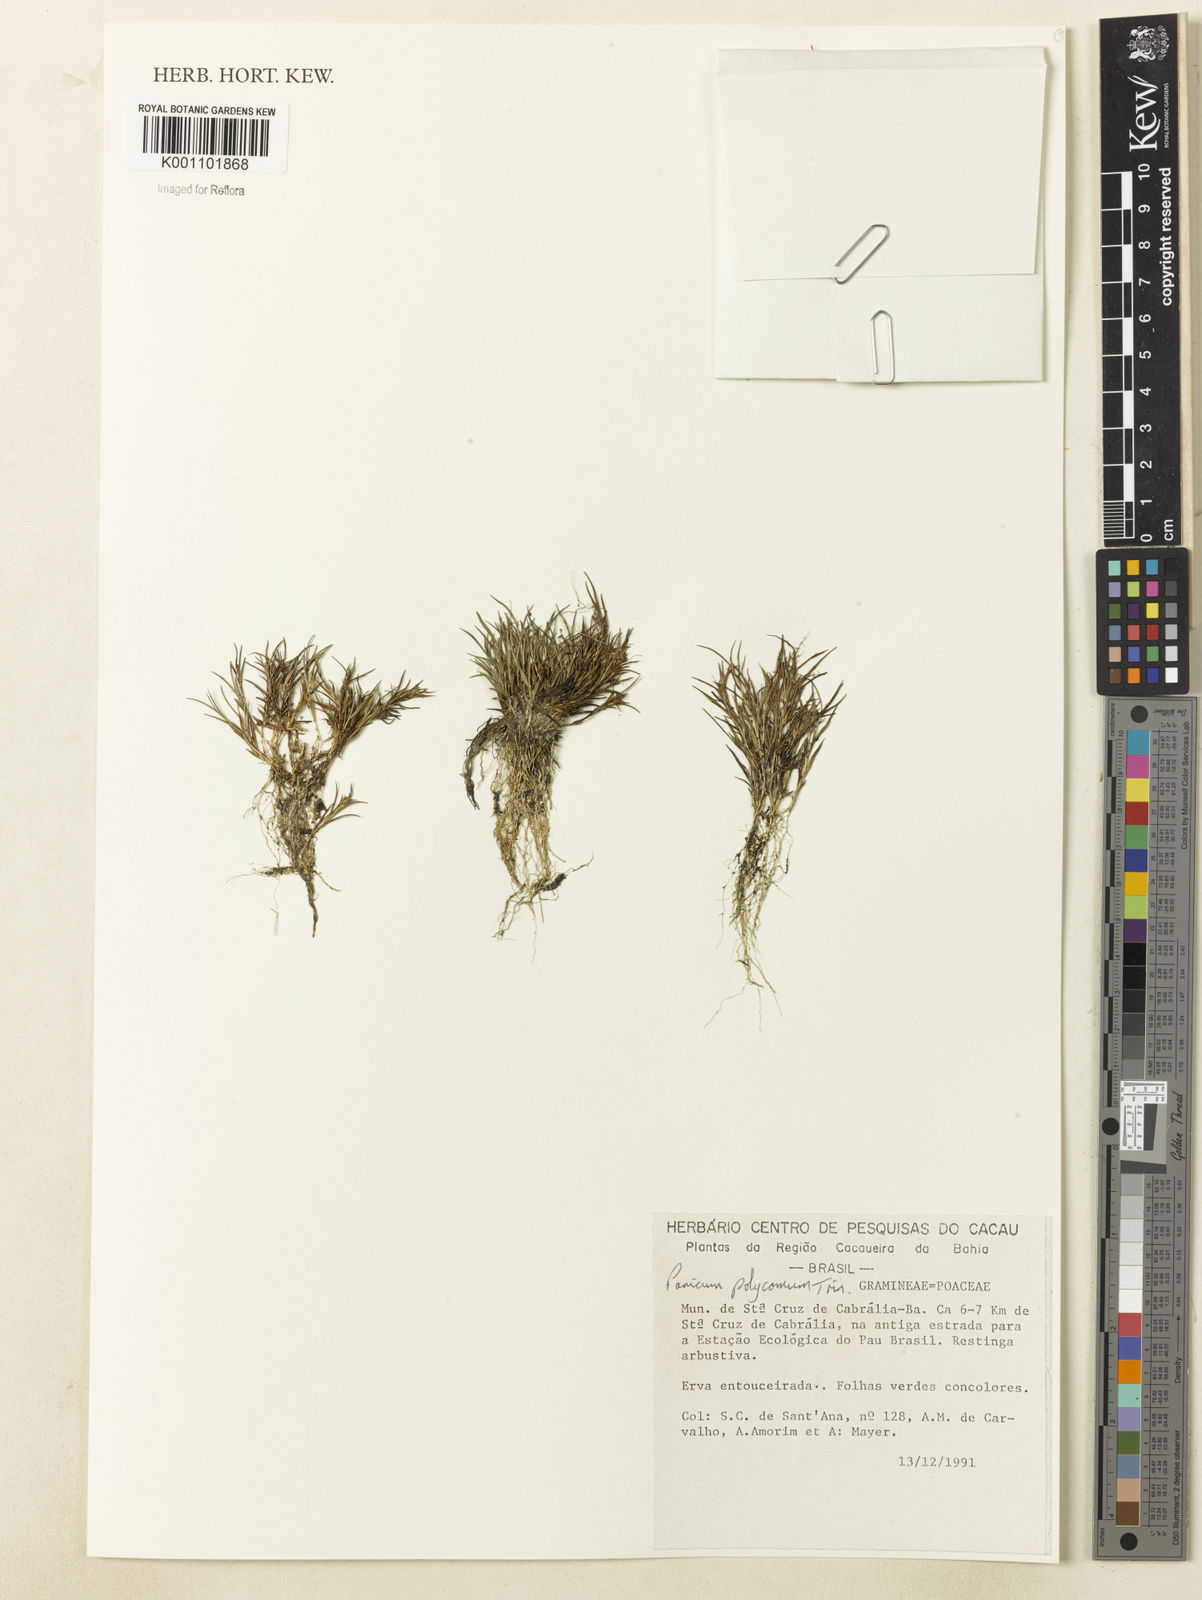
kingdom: Plantae
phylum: Tracheophyta
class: Liliopsida
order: Poales
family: Poaceae
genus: Trichanthecium
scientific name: Trichanthecium polycomum
